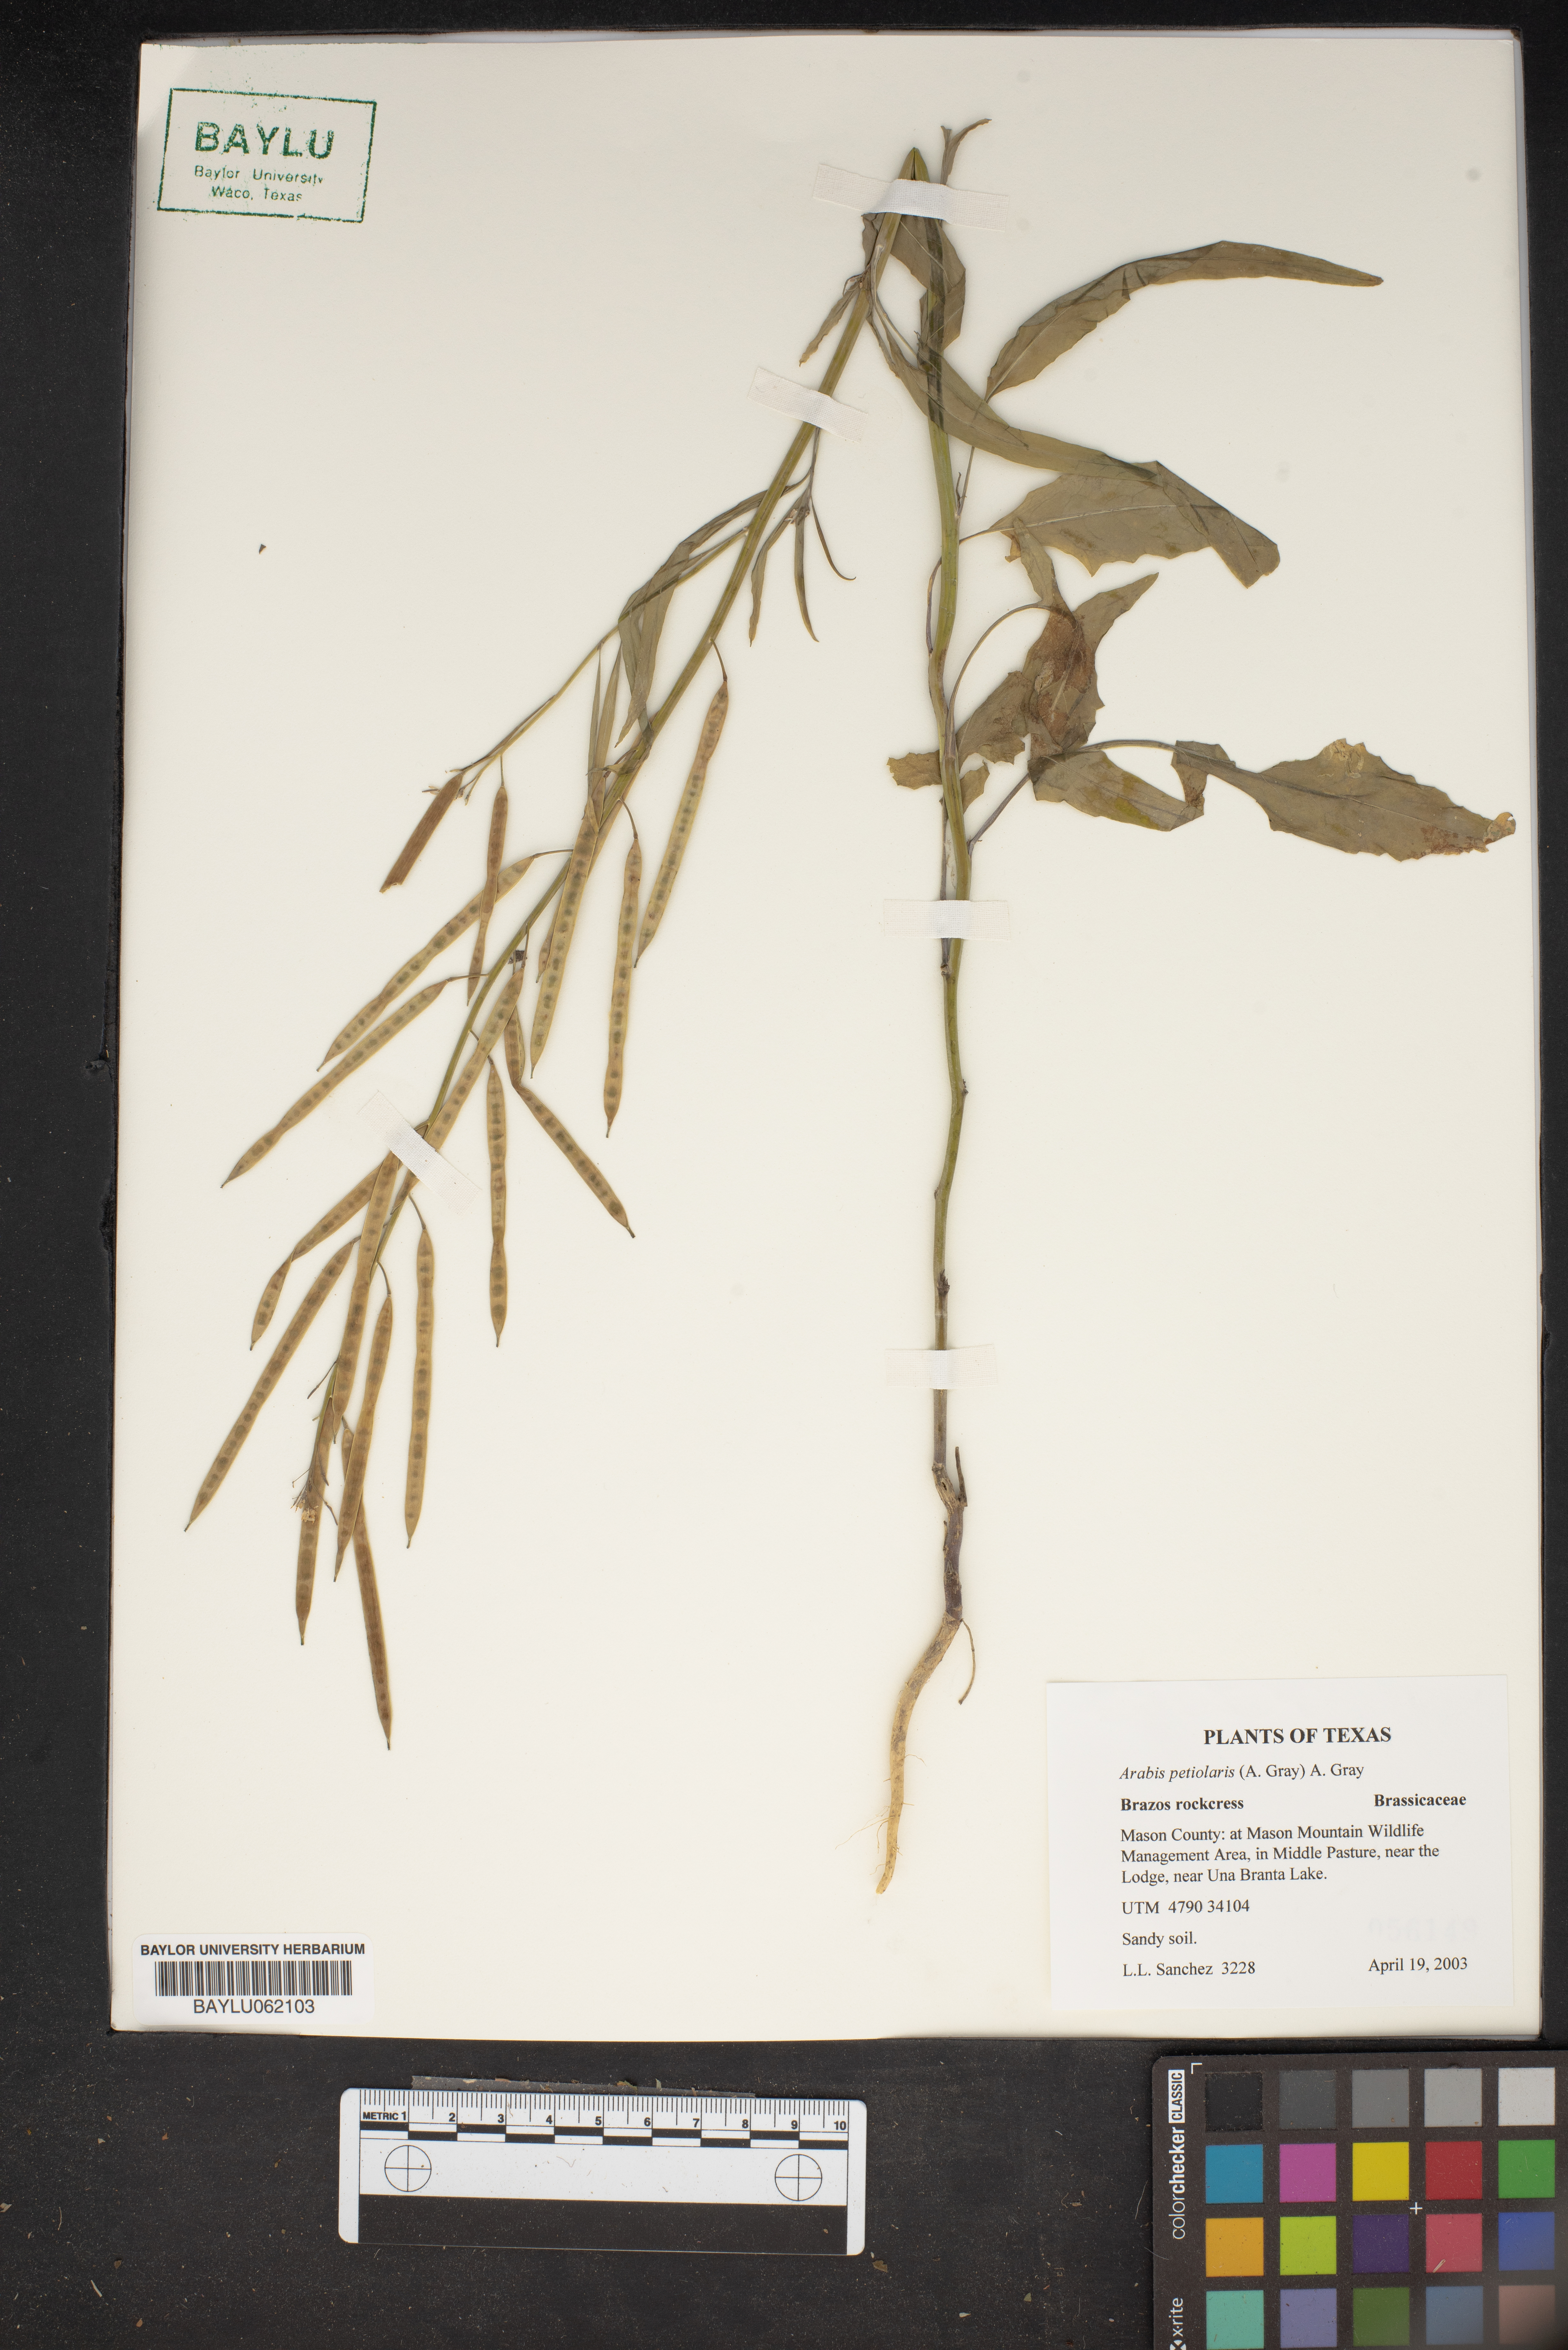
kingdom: Plantae
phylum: Tracheophyta
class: Magnoliopsida
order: Brassicales
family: Brassicaceae
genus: Streptanthus
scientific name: Streptanthus petiolaris
